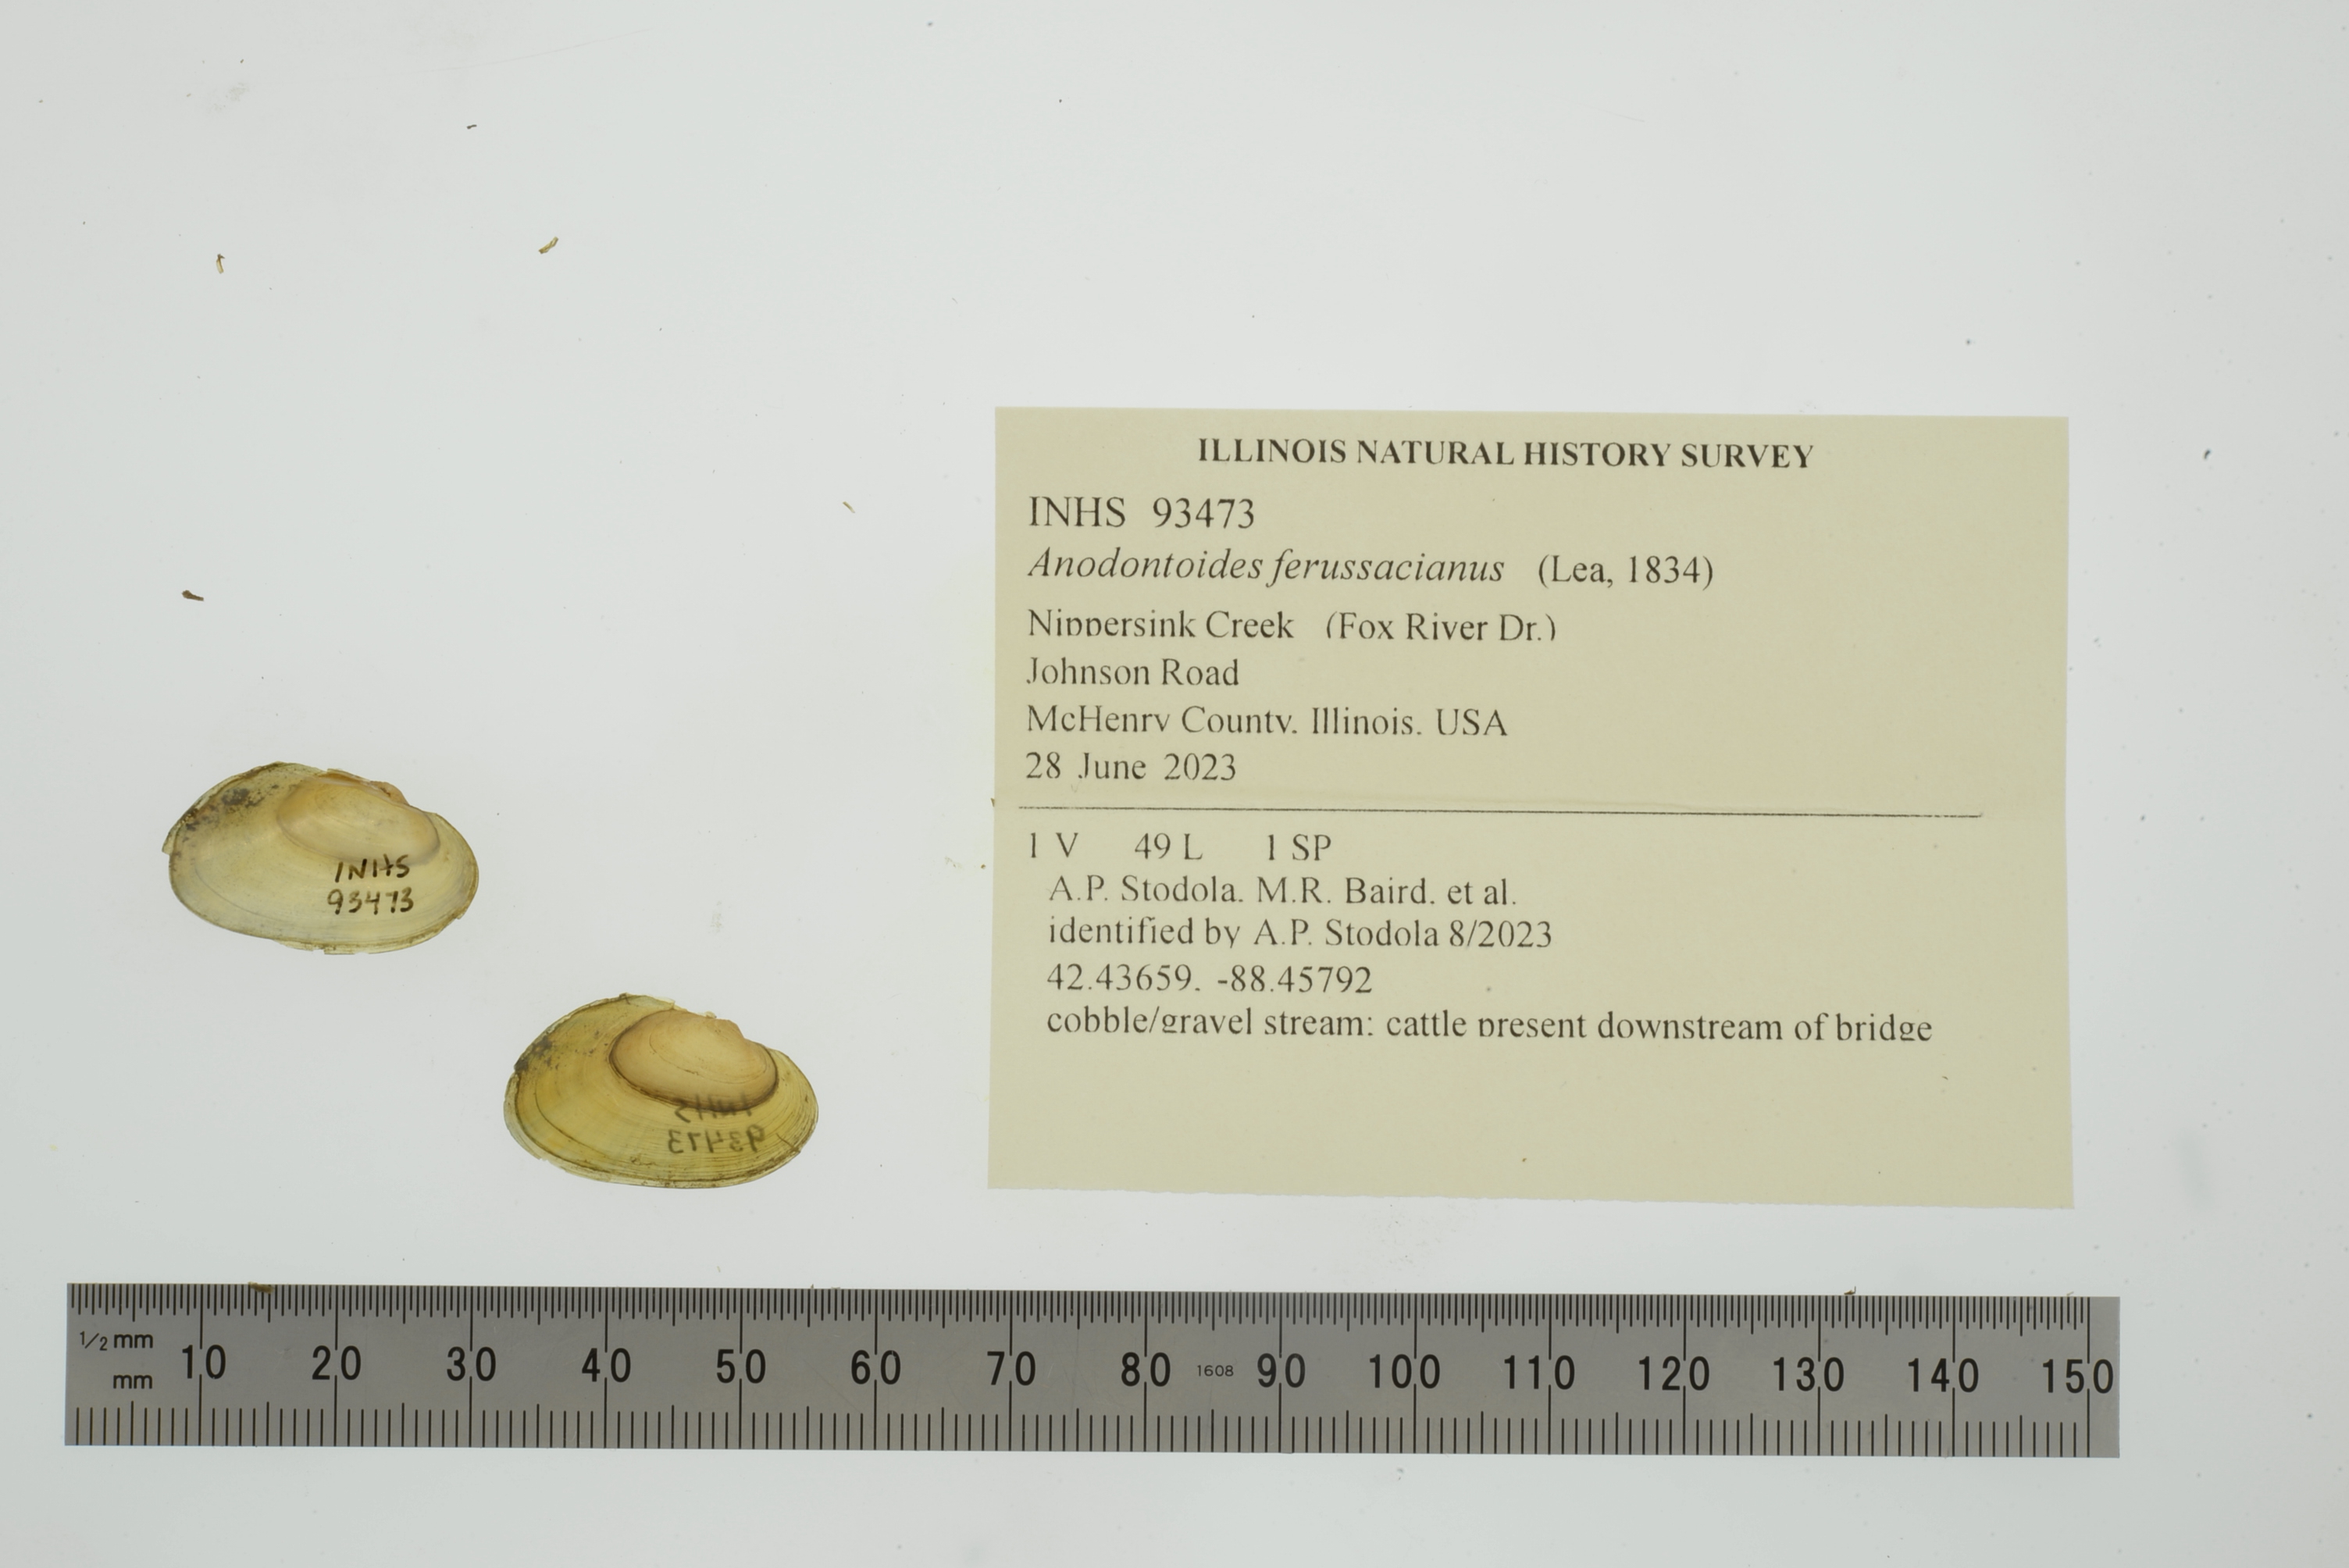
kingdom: Animalia
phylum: Mollusca
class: Bivalvia
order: Unionida
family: Unionidae
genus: Anodontoides
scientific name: Anodontoides ferussacianus
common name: Cylindrical papershell
